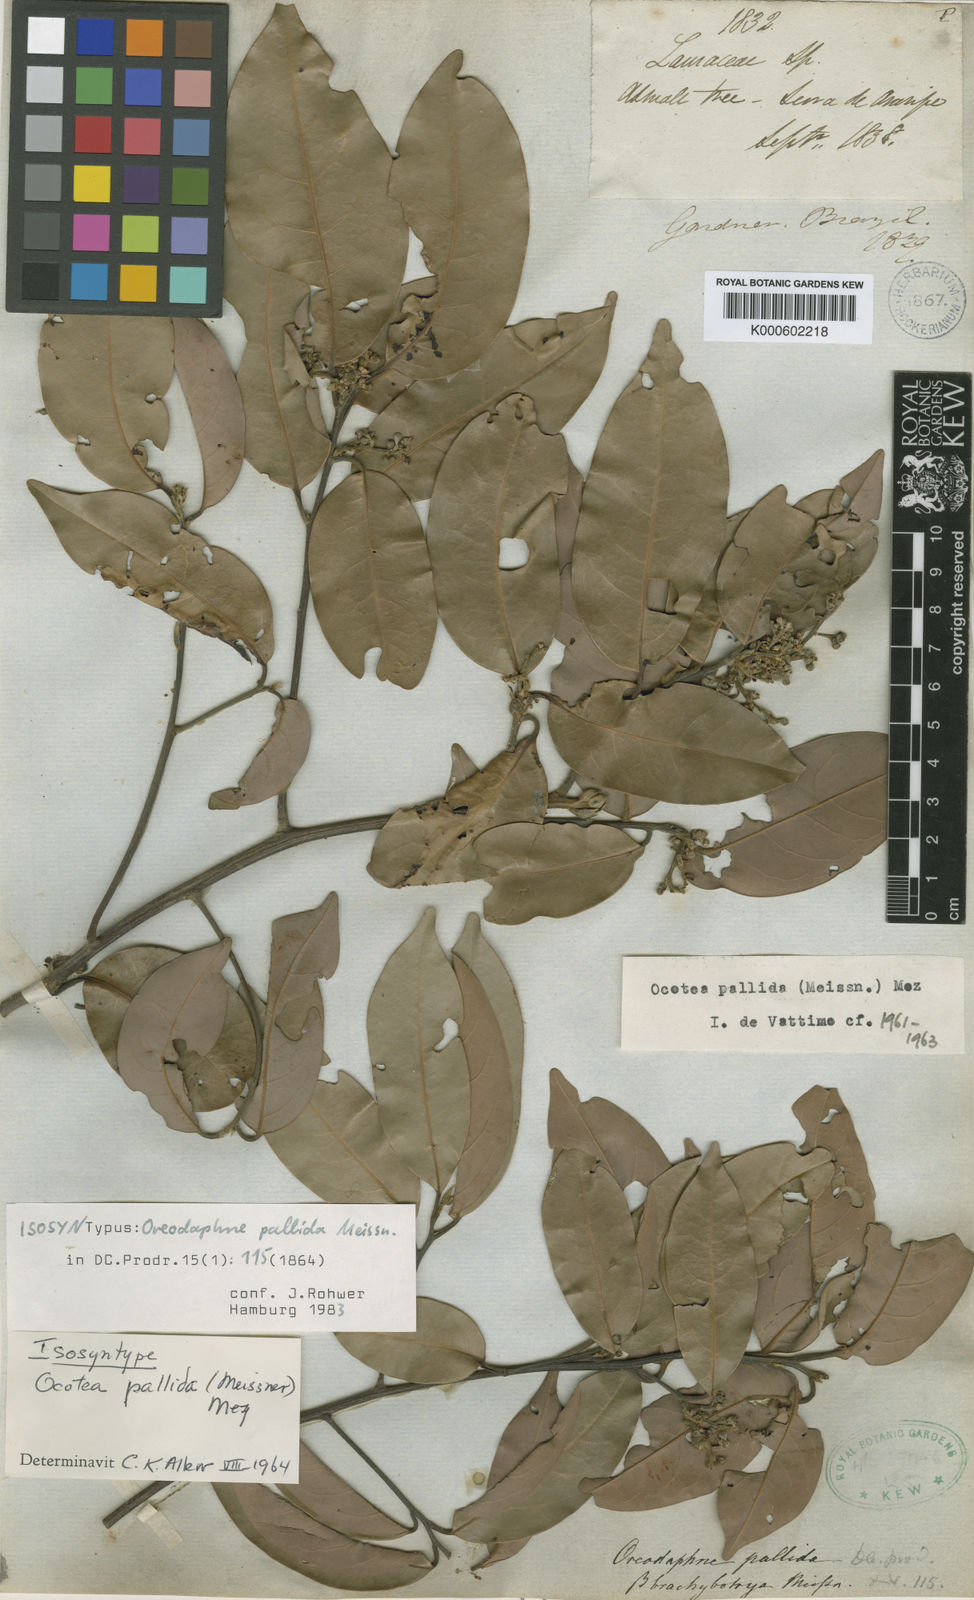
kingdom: Plantae
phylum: Tracheophyta
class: Magnoliopsida
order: Laurales
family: Lauraceae
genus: Ocotea
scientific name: Ocotea nitida
